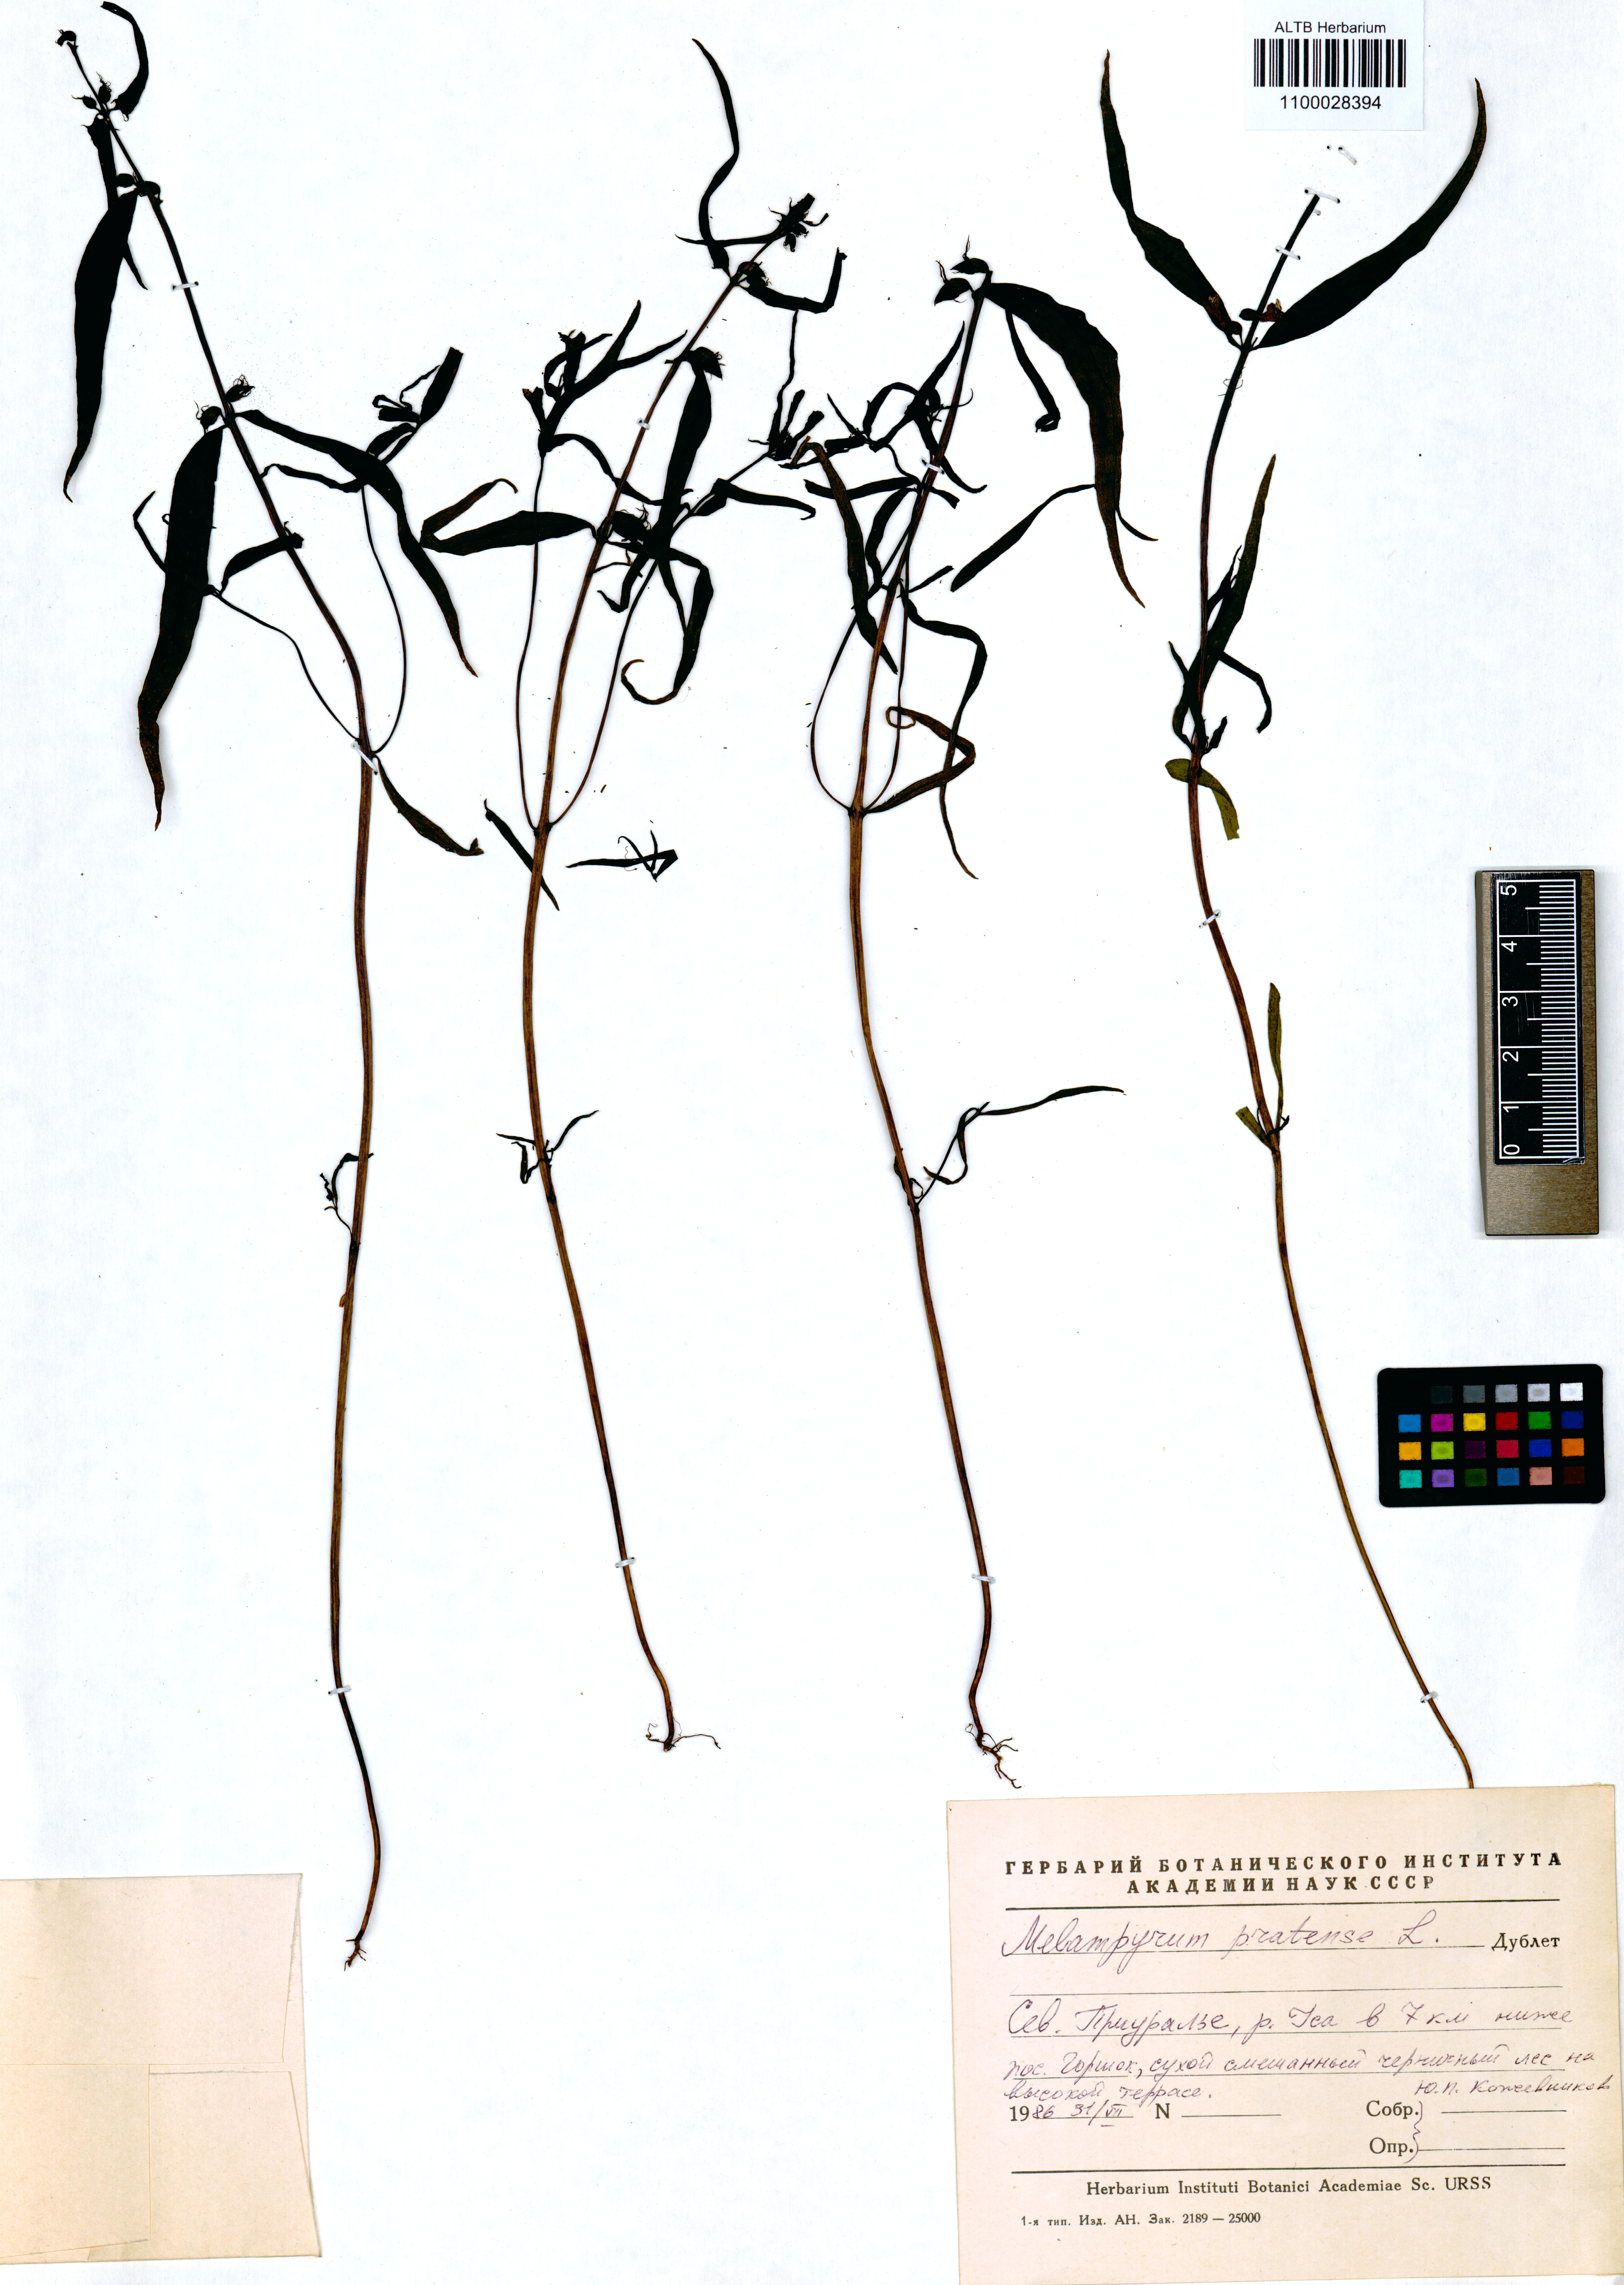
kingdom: Plantae
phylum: Tracheophyta
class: Magnoliopsida
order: Lamiales
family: Orobanchaceae
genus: Melampyrum
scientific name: Melampyrum pratense
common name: Common cow-wheat
